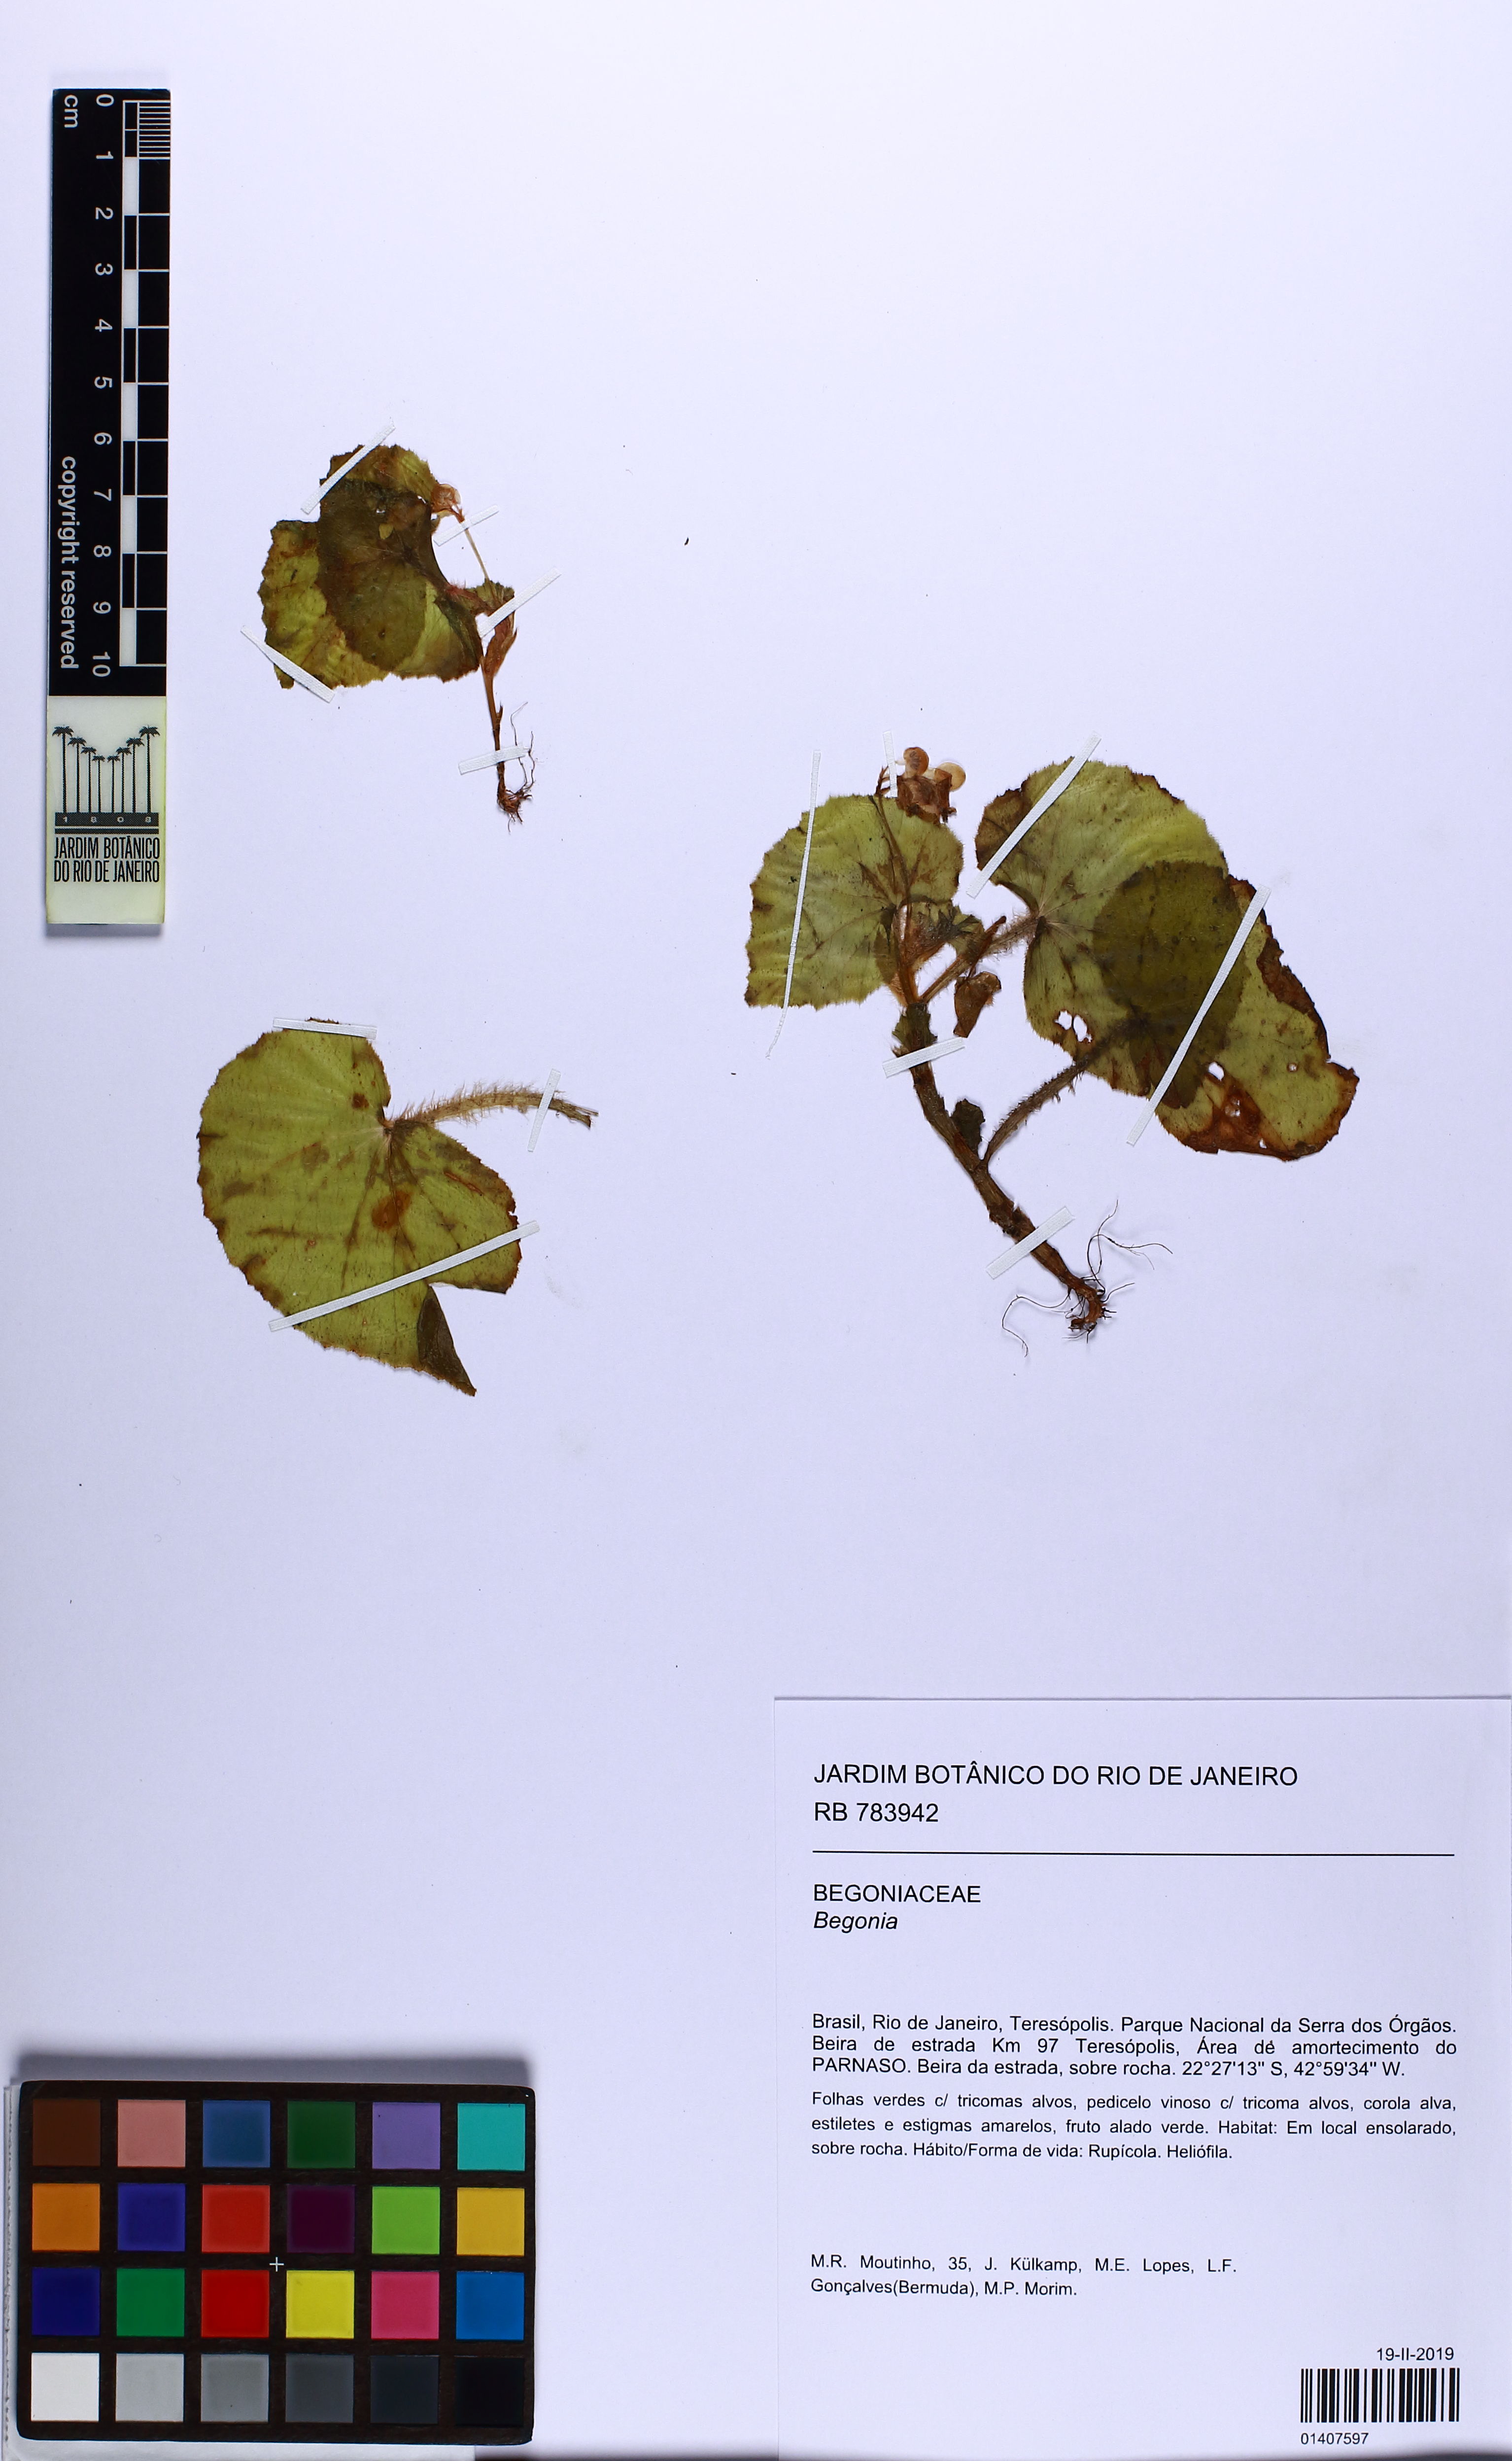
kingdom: Plantae
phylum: Tracheophyta
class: Magnoliopsida
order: Cucurbitales
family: Begoniaceae
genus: Begonia
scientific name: Begonia hirtella
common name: Brazilian begonia
